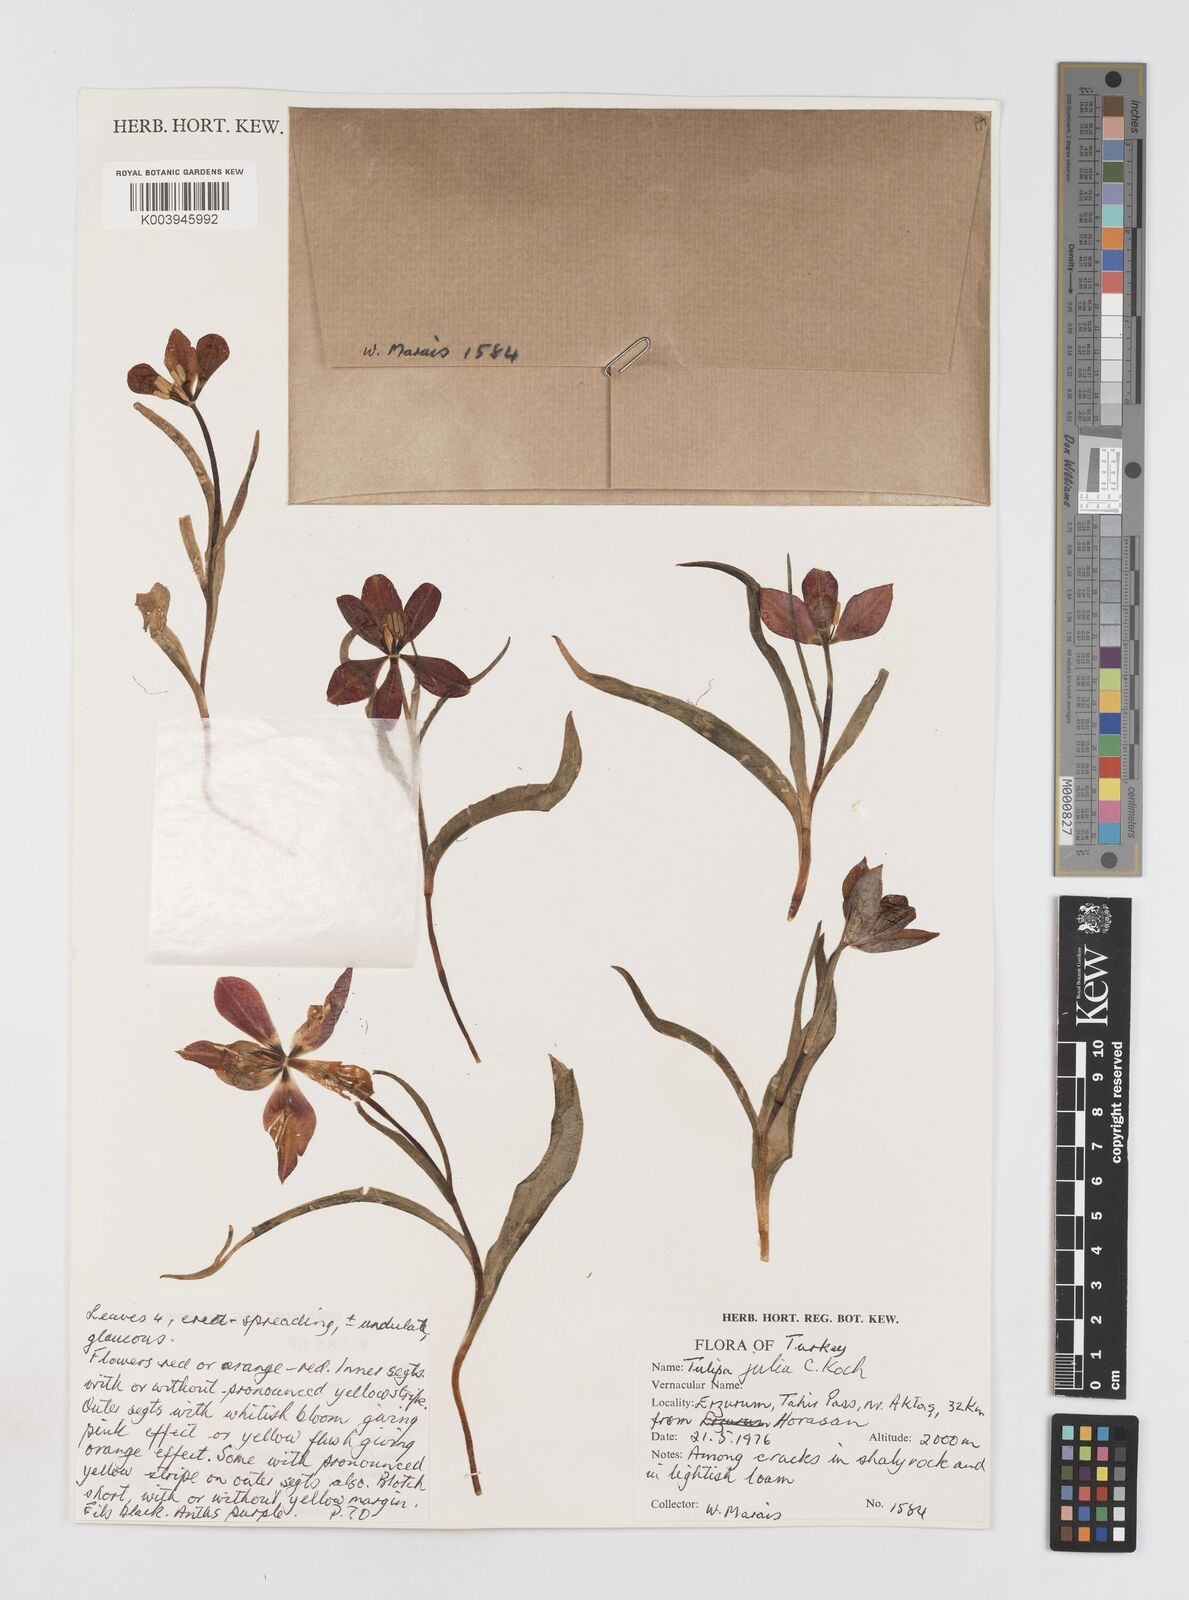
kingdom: Plantae
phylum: Tracheophyta
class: Liliopsida
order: Liliales
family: Liliaceae
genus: Tulipa
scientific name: Tulipa julia
